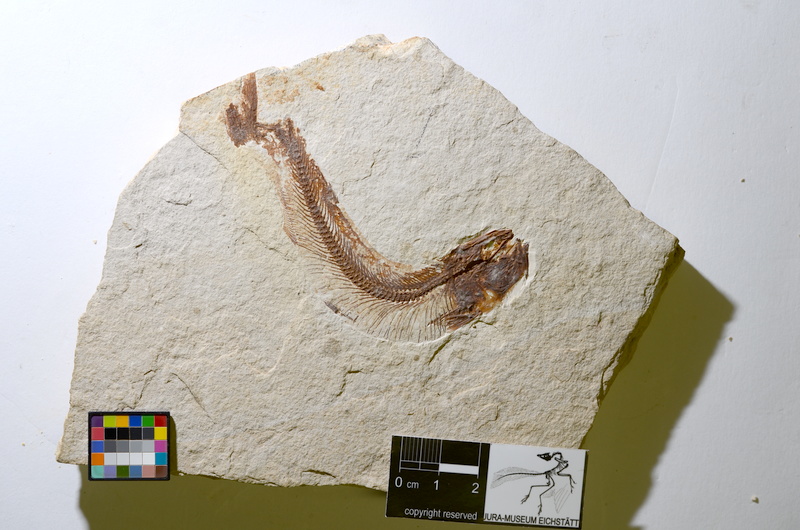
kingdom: Animalia
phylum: Chordata
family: Allothrissopidae
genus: Allothrissops
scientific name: Allothrissops mesogaster
